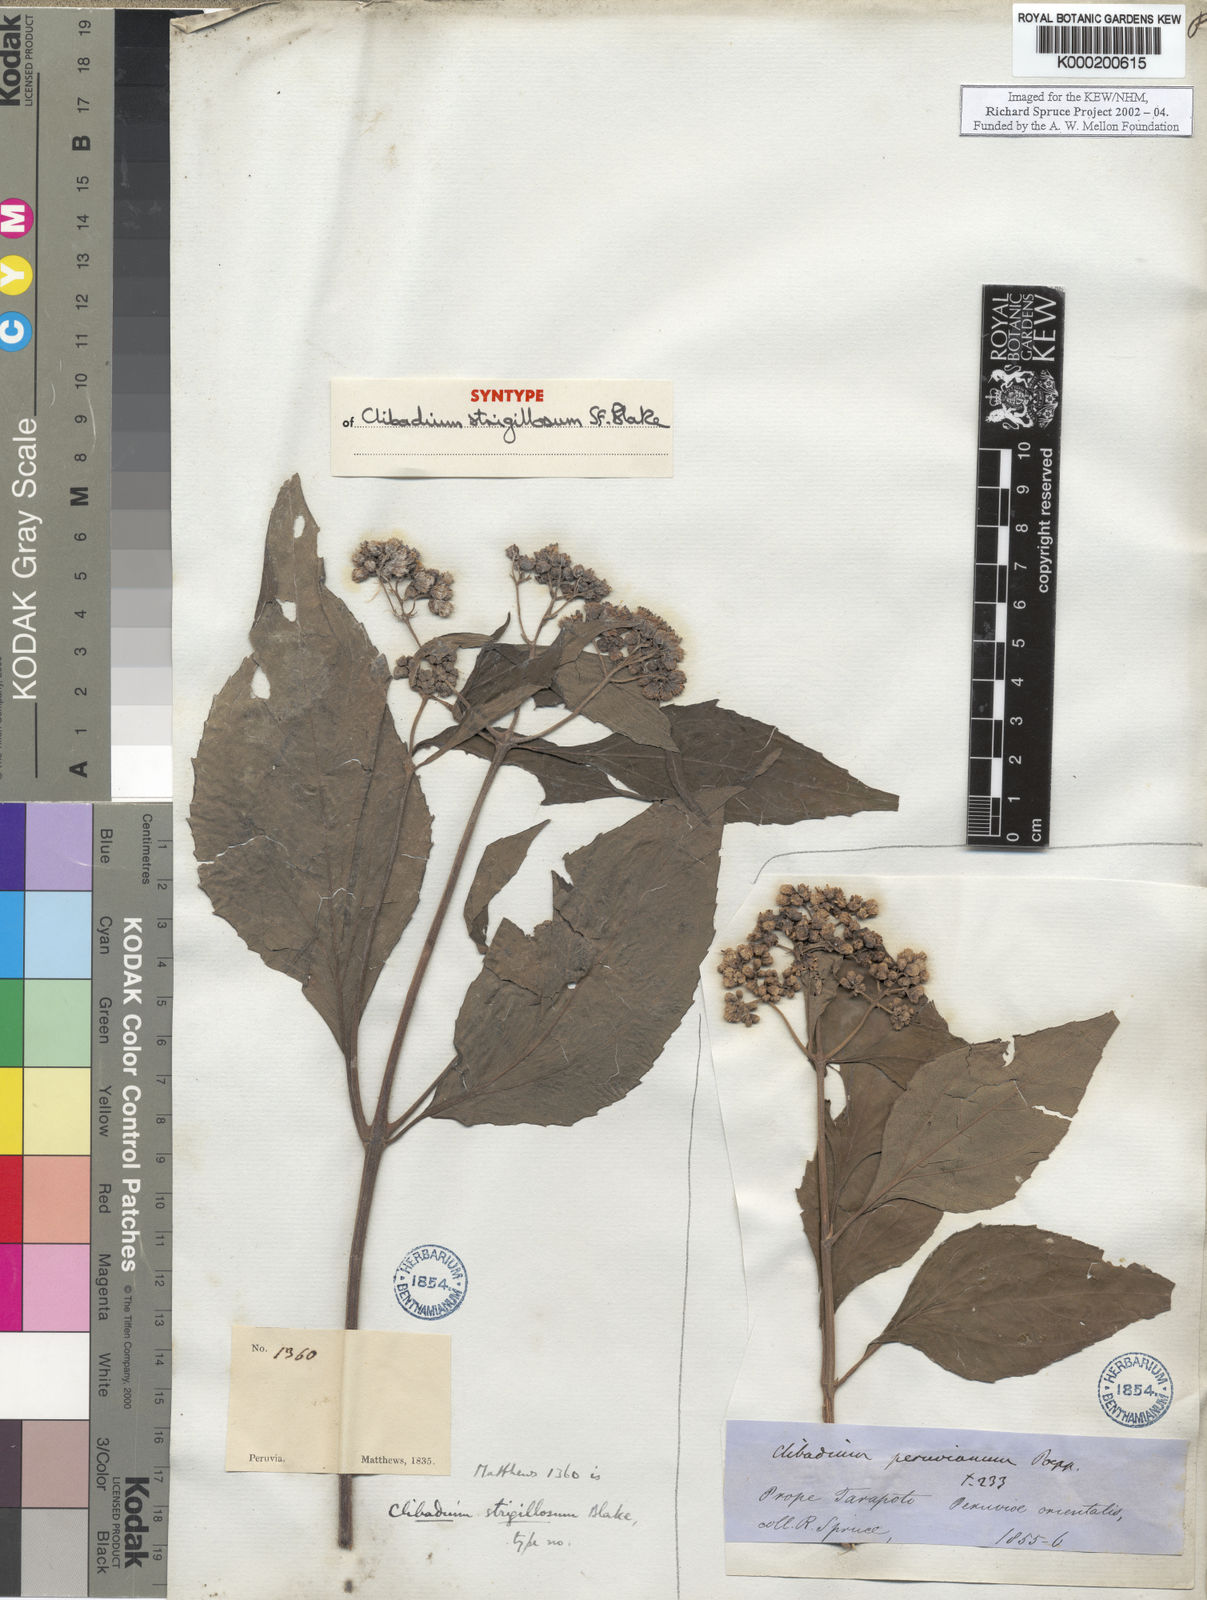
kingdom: Plantae
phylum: Tracheophyta
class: Magnoliopsida
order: Asterales
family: Asteraceae
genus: Clibadium
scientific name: Clibadium sylvestre
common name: Barbasco
